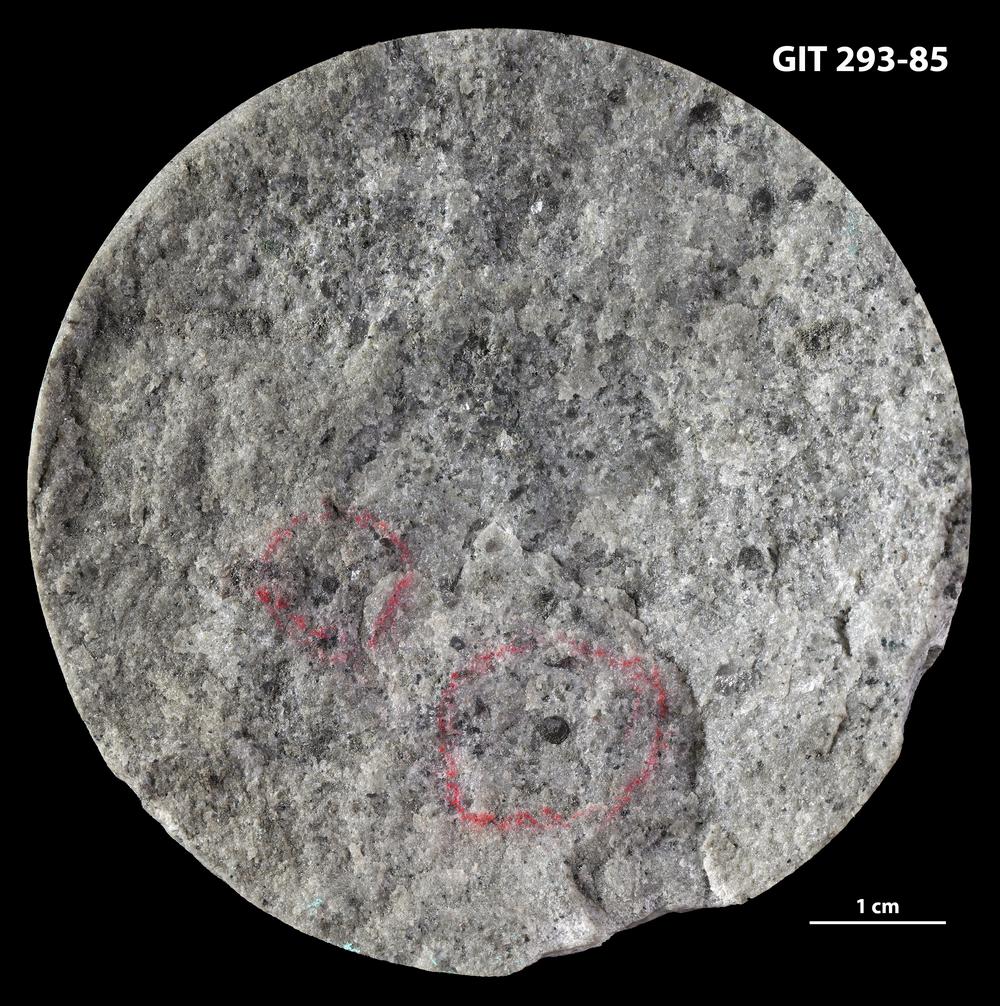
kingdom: Animalia
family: Mobergellidae
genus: Mobergella
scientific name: Mobergella radiolata
